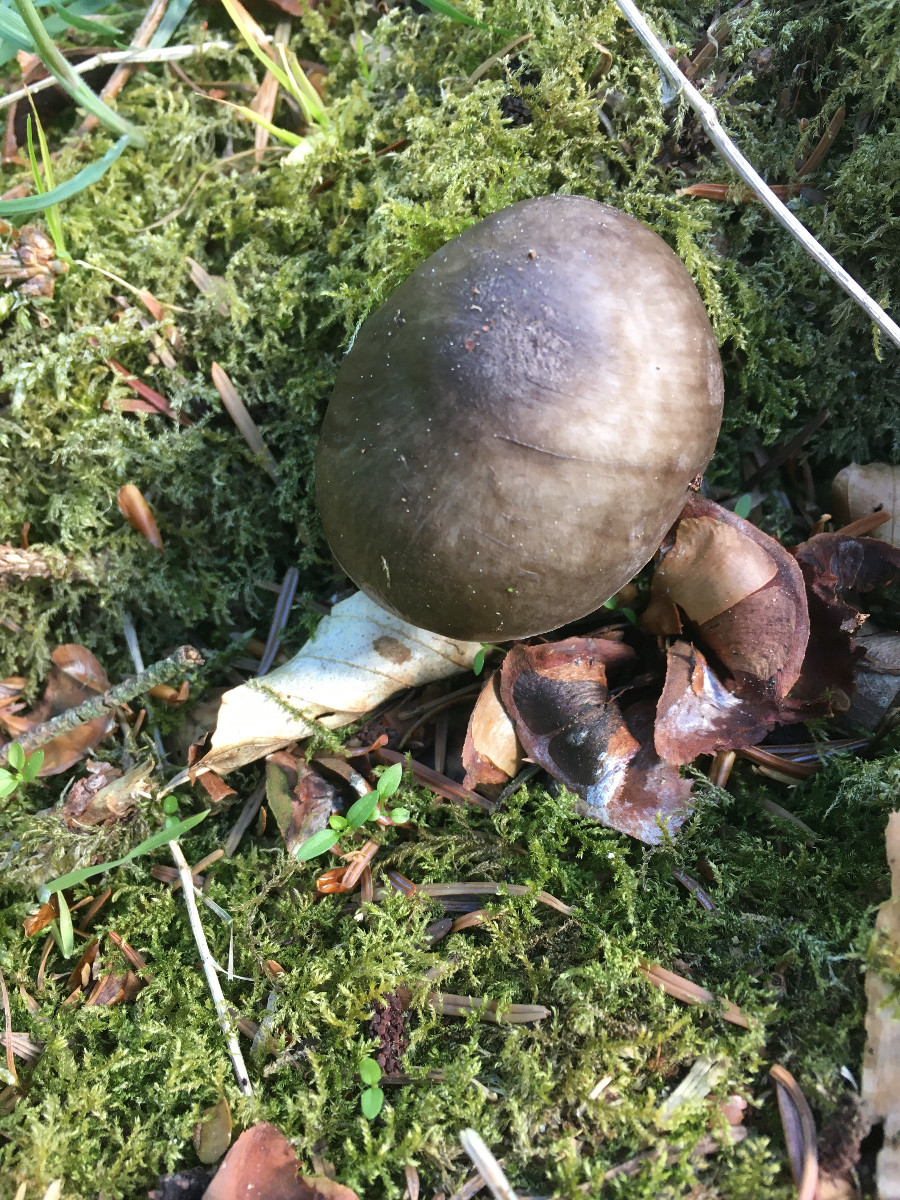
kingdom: Fungi
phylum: Basidiomycota
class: Agaricomycetes
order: Agaricales
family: Pluteaceae
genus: Pluteus
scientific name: Pluteus
